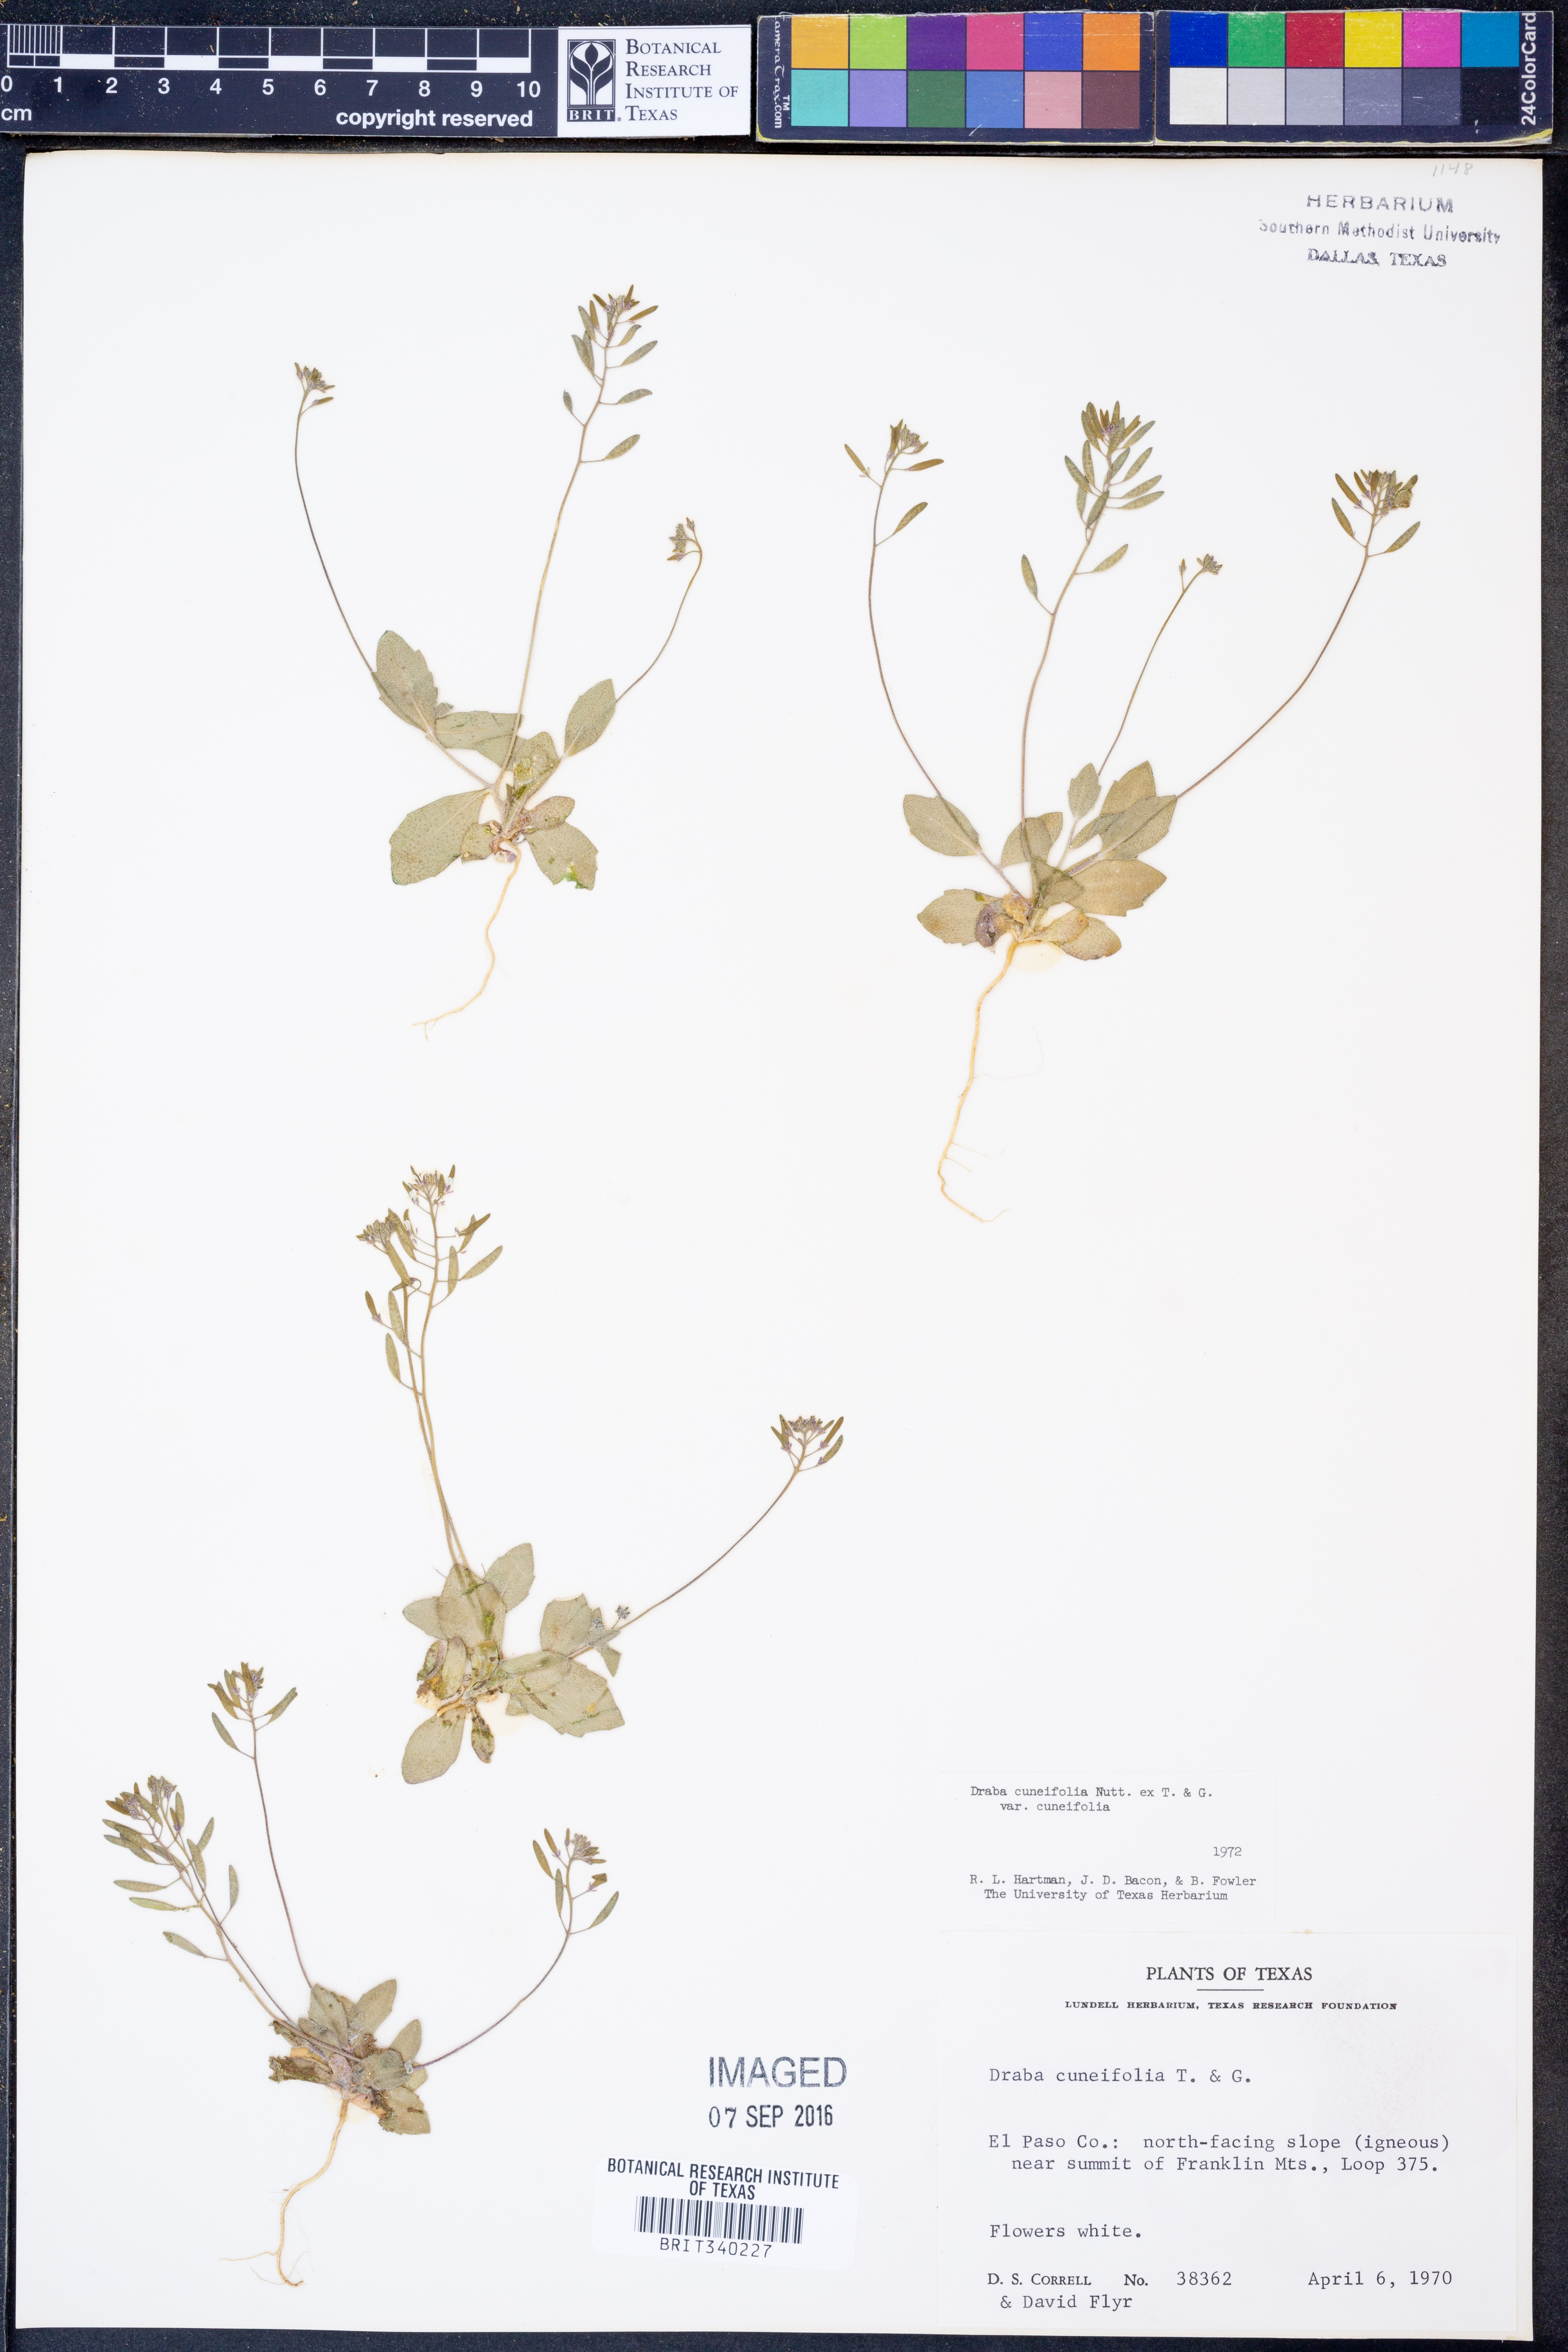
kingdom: Plantae
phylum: Tracheophyta
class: Magnoliopsida
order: Brassicales
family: Brassicaceae
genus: Tomostima
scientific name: Tomostima cuneifolia
